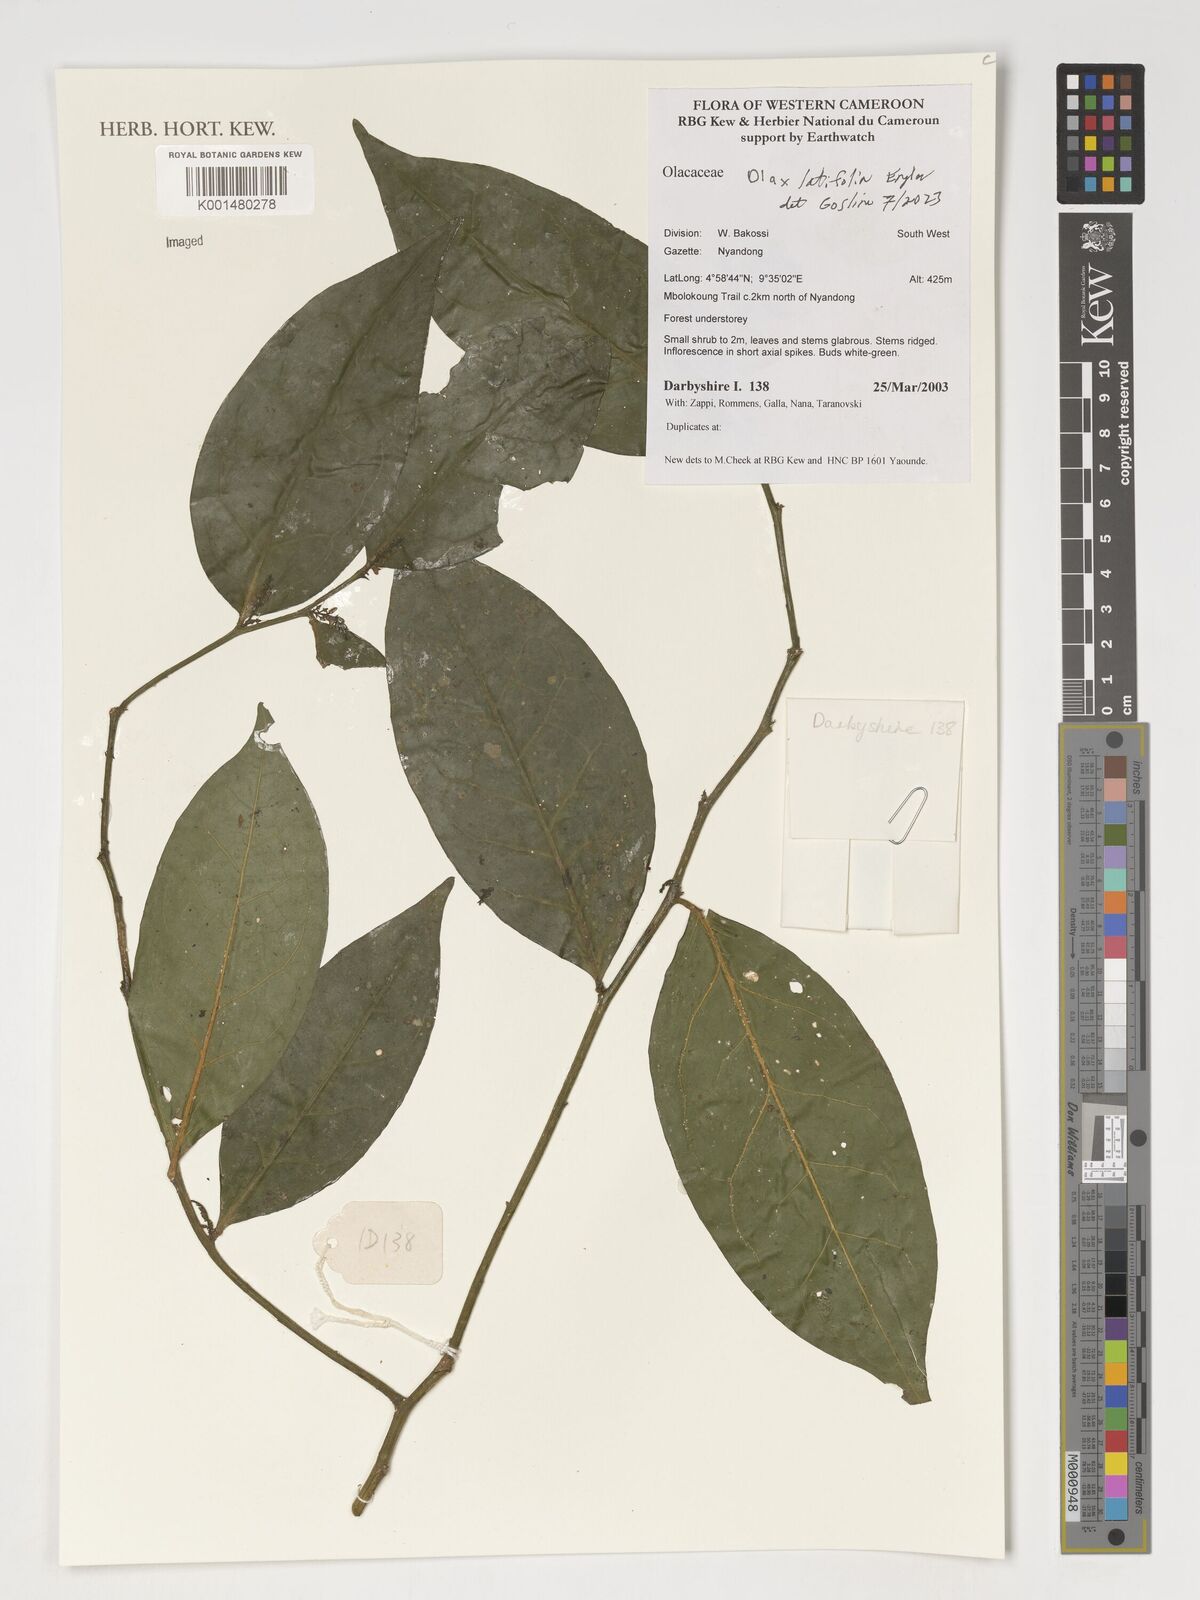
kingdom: Plantae
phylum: Tracheophyta
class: Magnoliopsida
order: Santalales
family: Olacaceae
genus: Olax
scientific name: Olax latifolia
